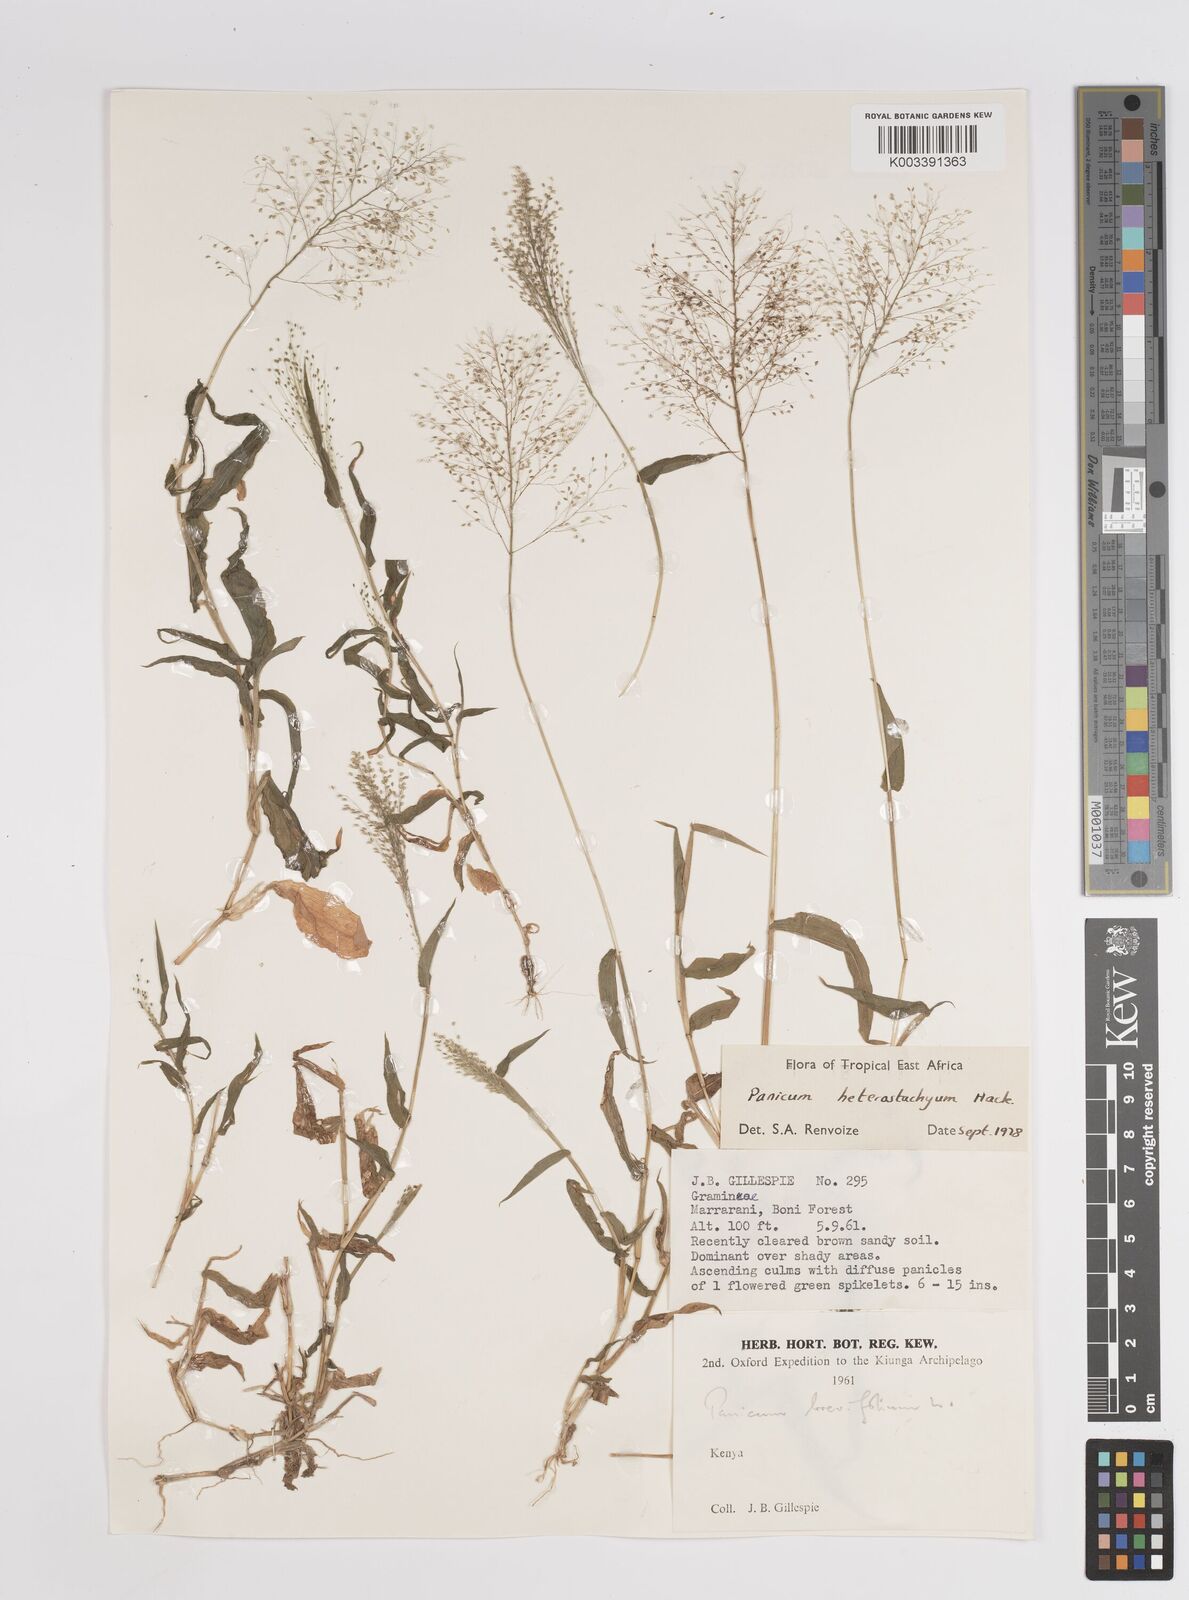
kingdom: Plantae
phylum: Tracheophyta
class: Liliopsida
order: Poales
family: Poaceae
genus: Panicum
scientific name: Panicum hirtum
